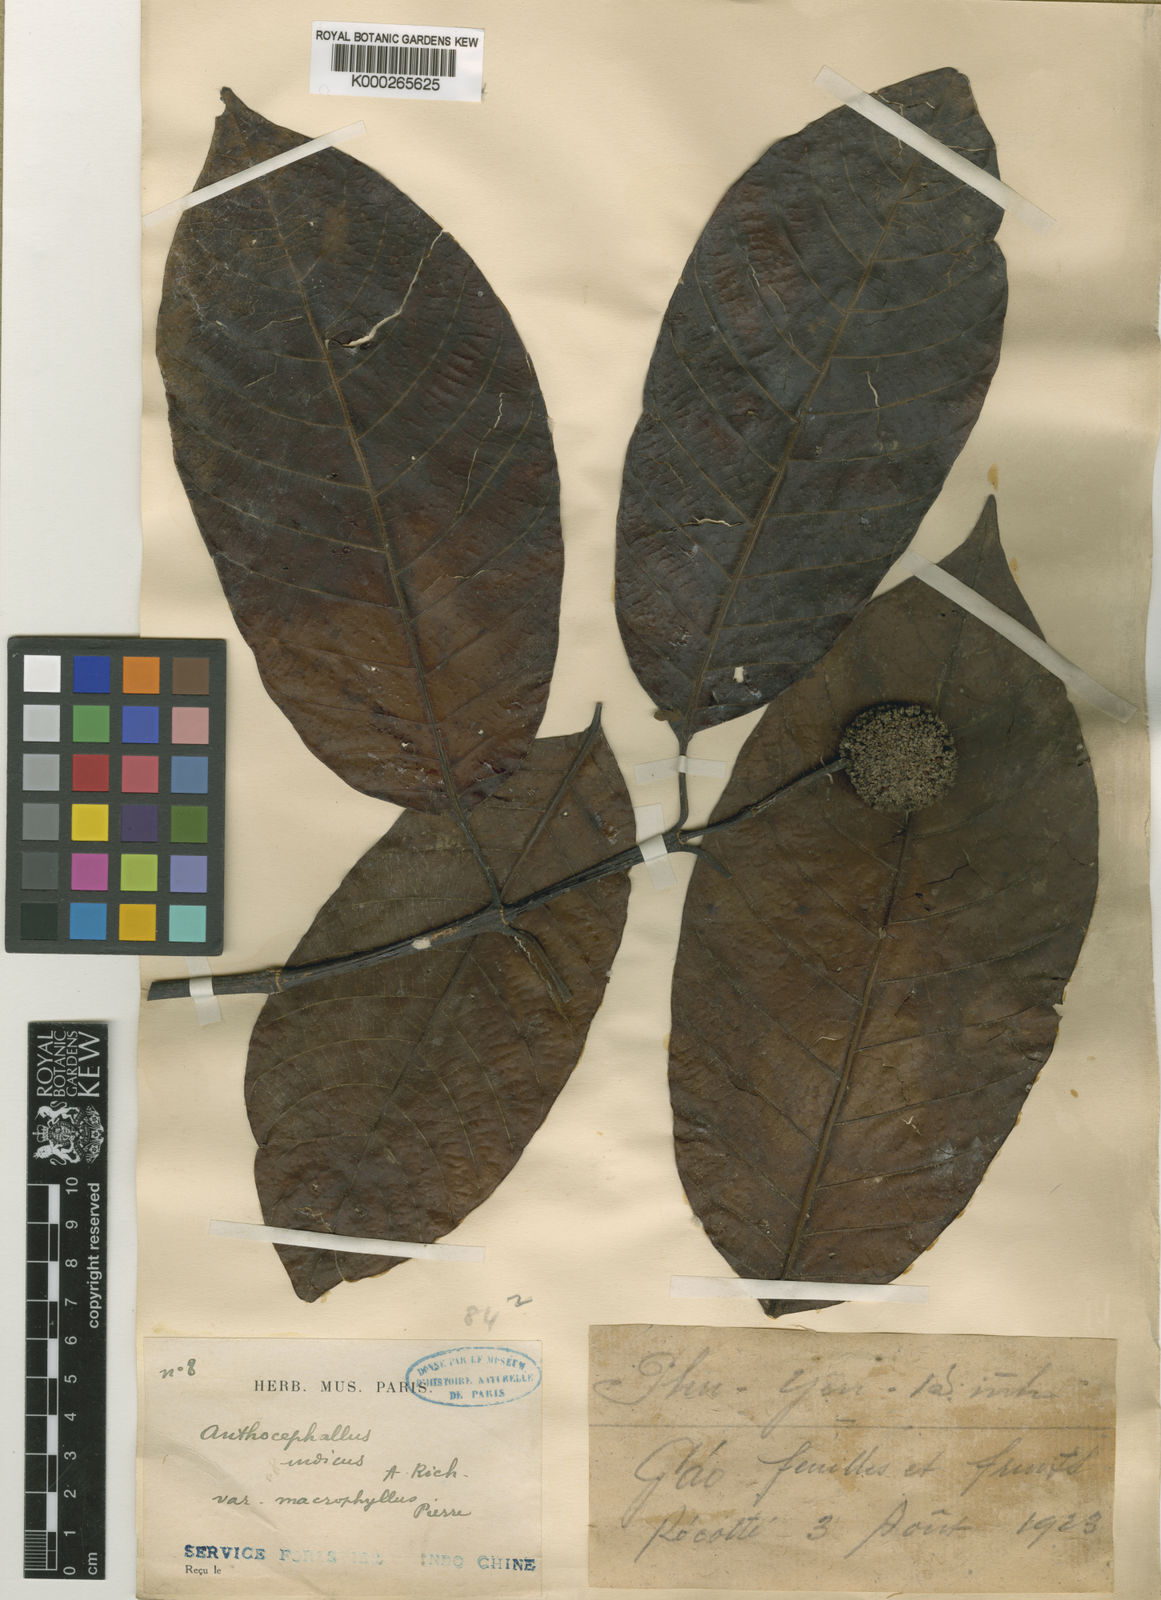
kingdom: Plantae
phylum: Tracheophyta
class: Magnoliopsida
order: Gentianales
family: Rubiaceae
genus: Neolamarckia
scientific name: Neolamarckia cadamba
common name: Leichhardt-pine
